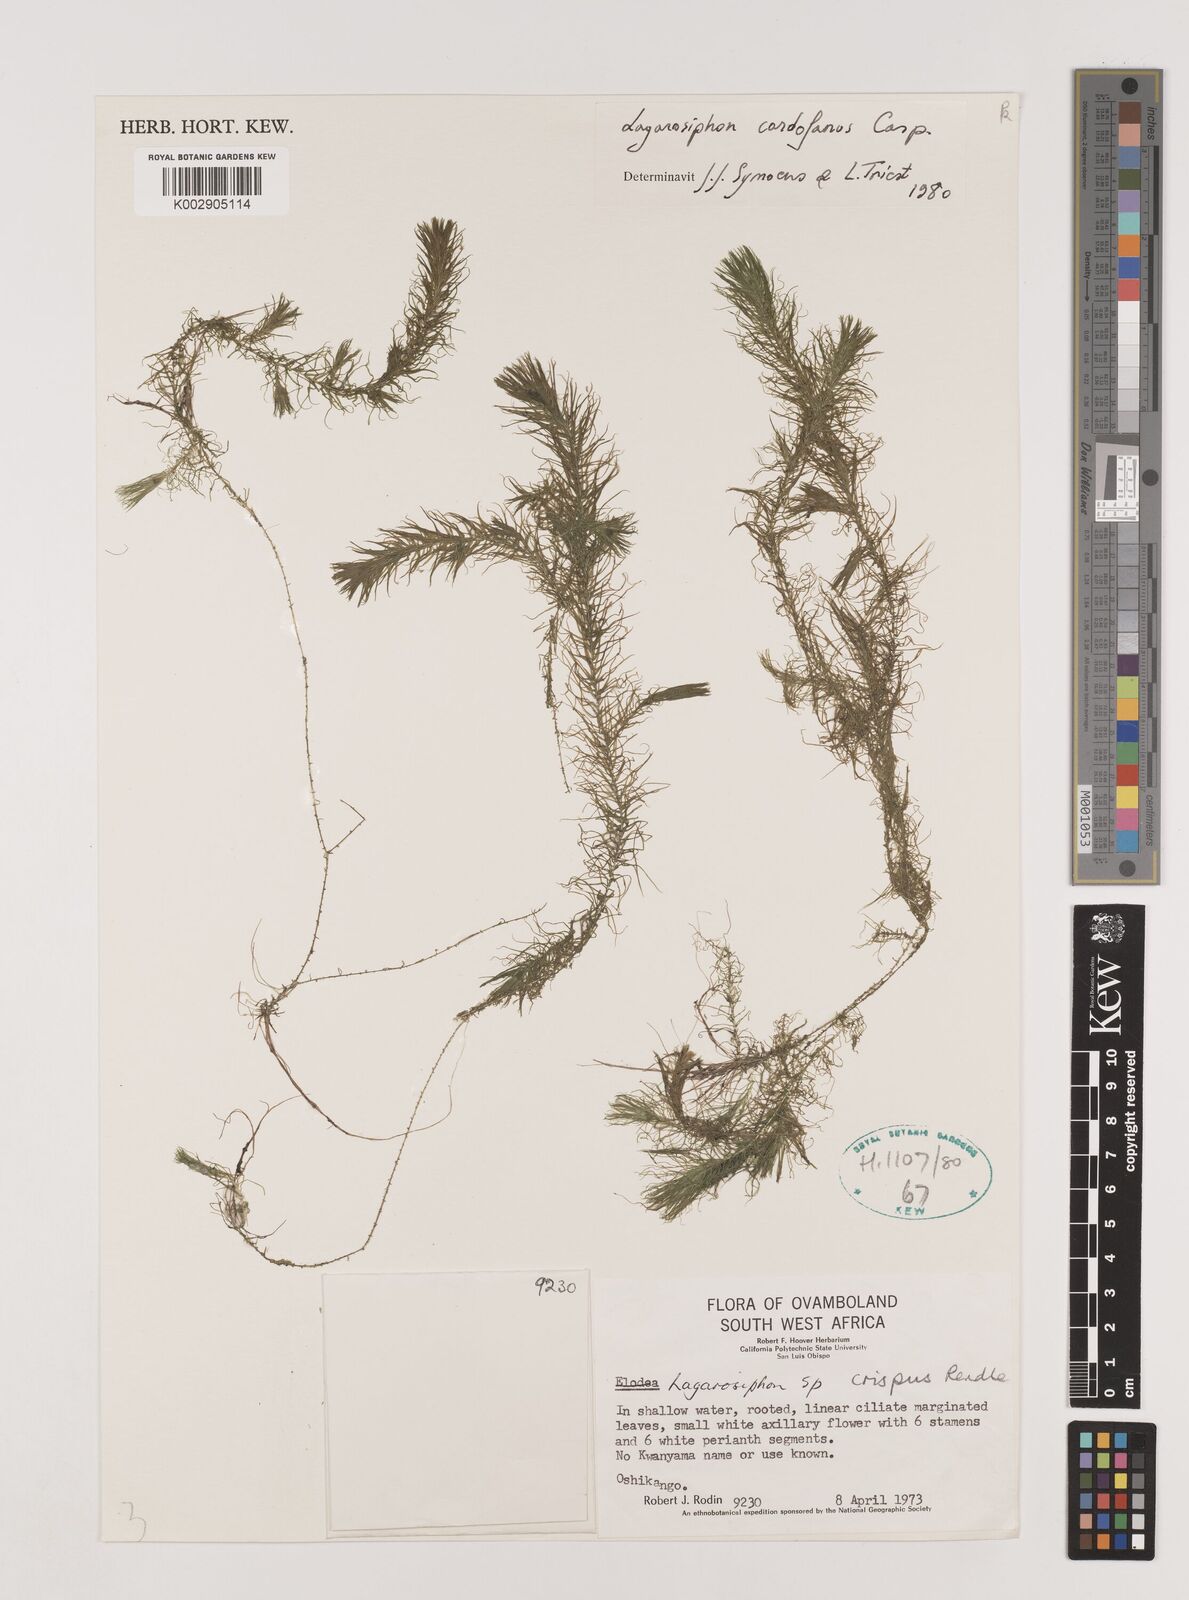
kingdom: Plantae
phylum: Tracheophyta
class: Liliopsida
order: Alismatales
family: Hydrocharitaceae
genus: Lagarosiphon
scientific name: Lagarosiphon cordofanus
